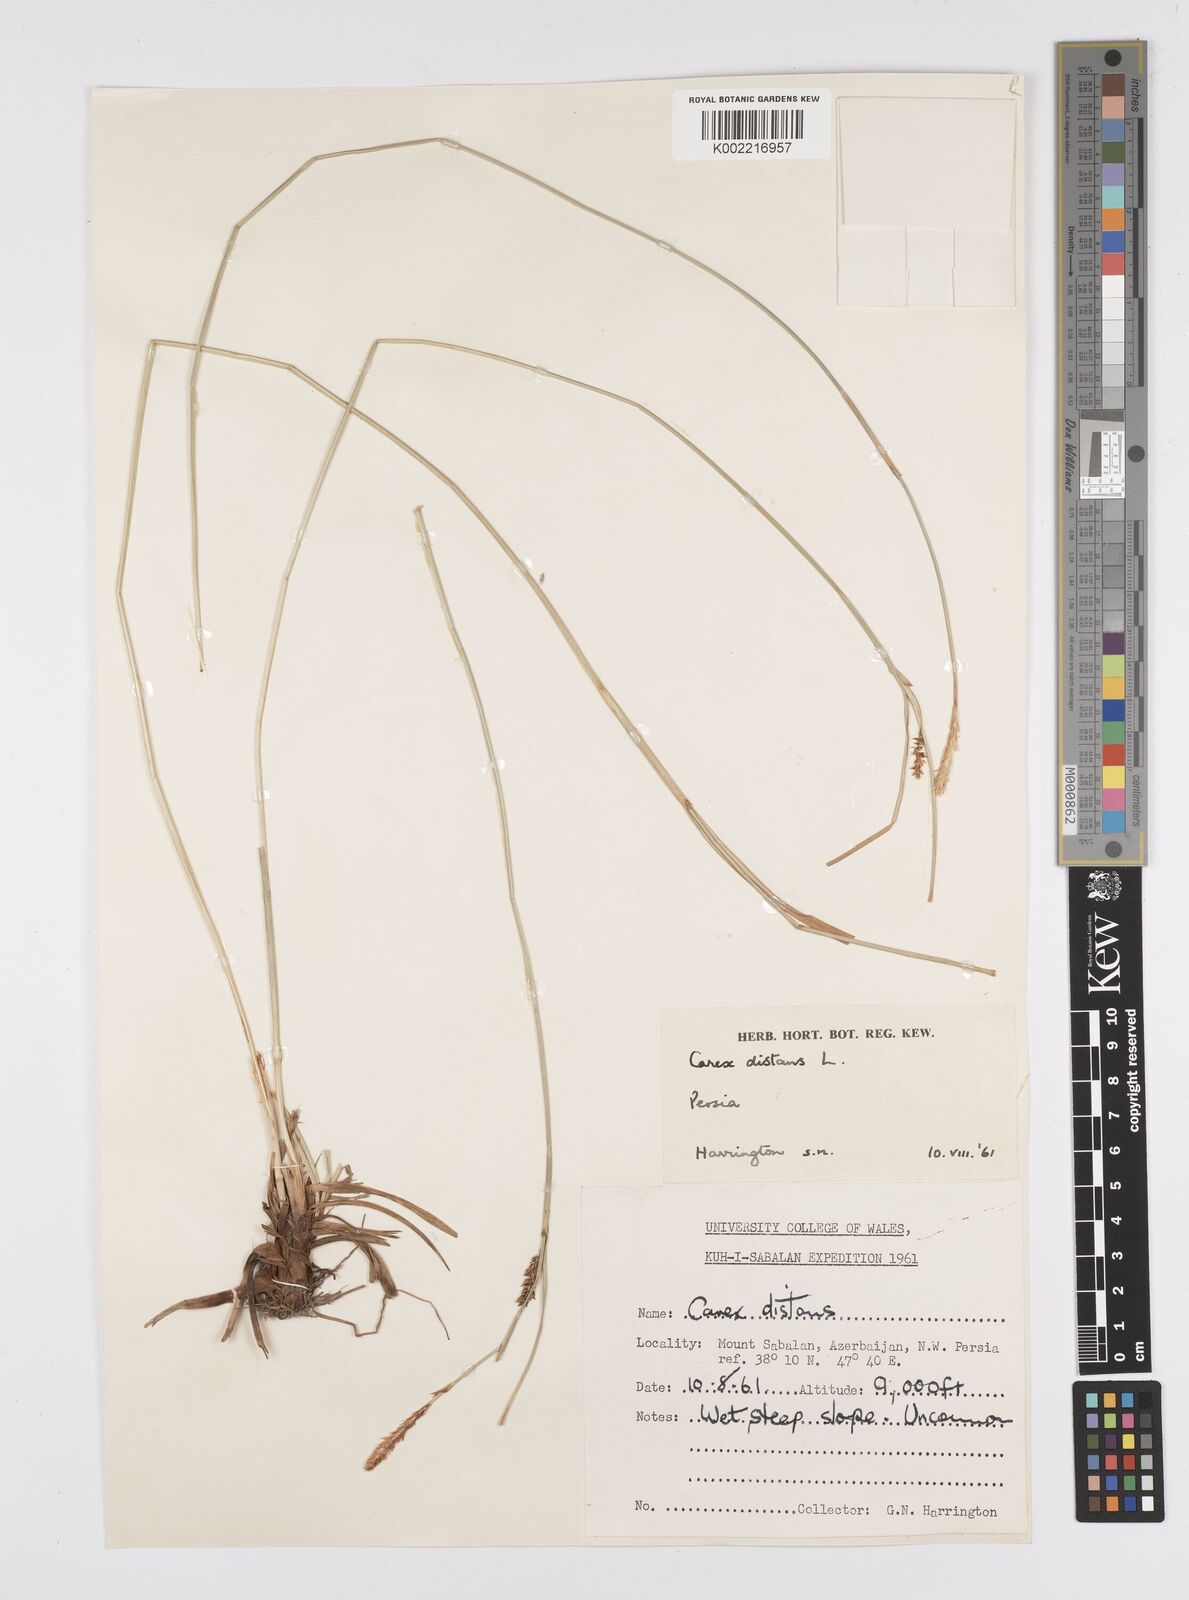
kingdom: Plantae
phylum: Tracheophyta
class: Liliopsida
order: Poales
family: Cyperaceae
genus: Carex
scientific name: Carex distans
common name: Distant sedge
